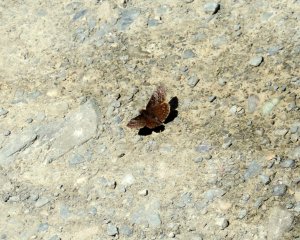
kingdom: Animalia
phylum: Arthropoda
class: Insecta
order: Lepidoptera
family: Hesperiidae
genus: Erynnis
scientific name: Erynnis icelus
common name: Dreamy Duskywing
